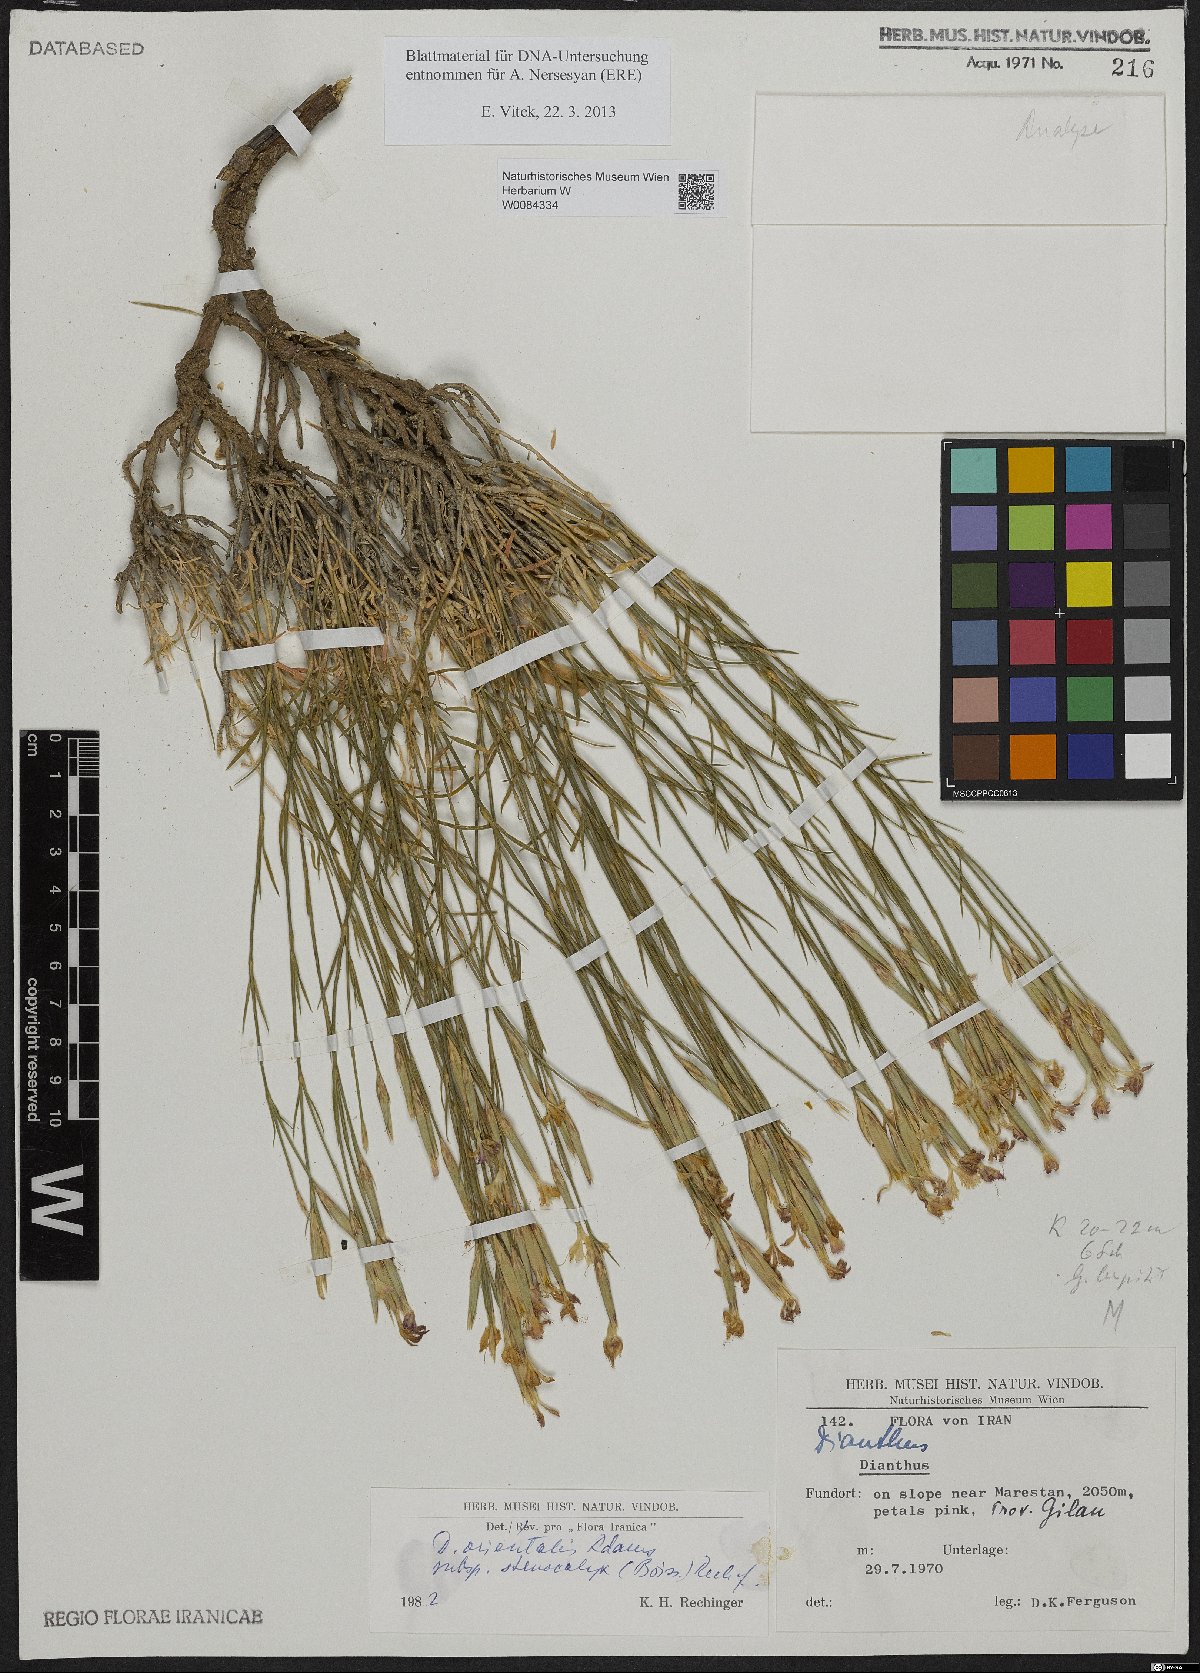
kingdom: Plantae
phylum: Tracheophyta
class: Magnoliopsida
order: Caryophyllales
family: Caryophyllaceae
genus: Dianthus
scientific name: Dianthus orientalis
